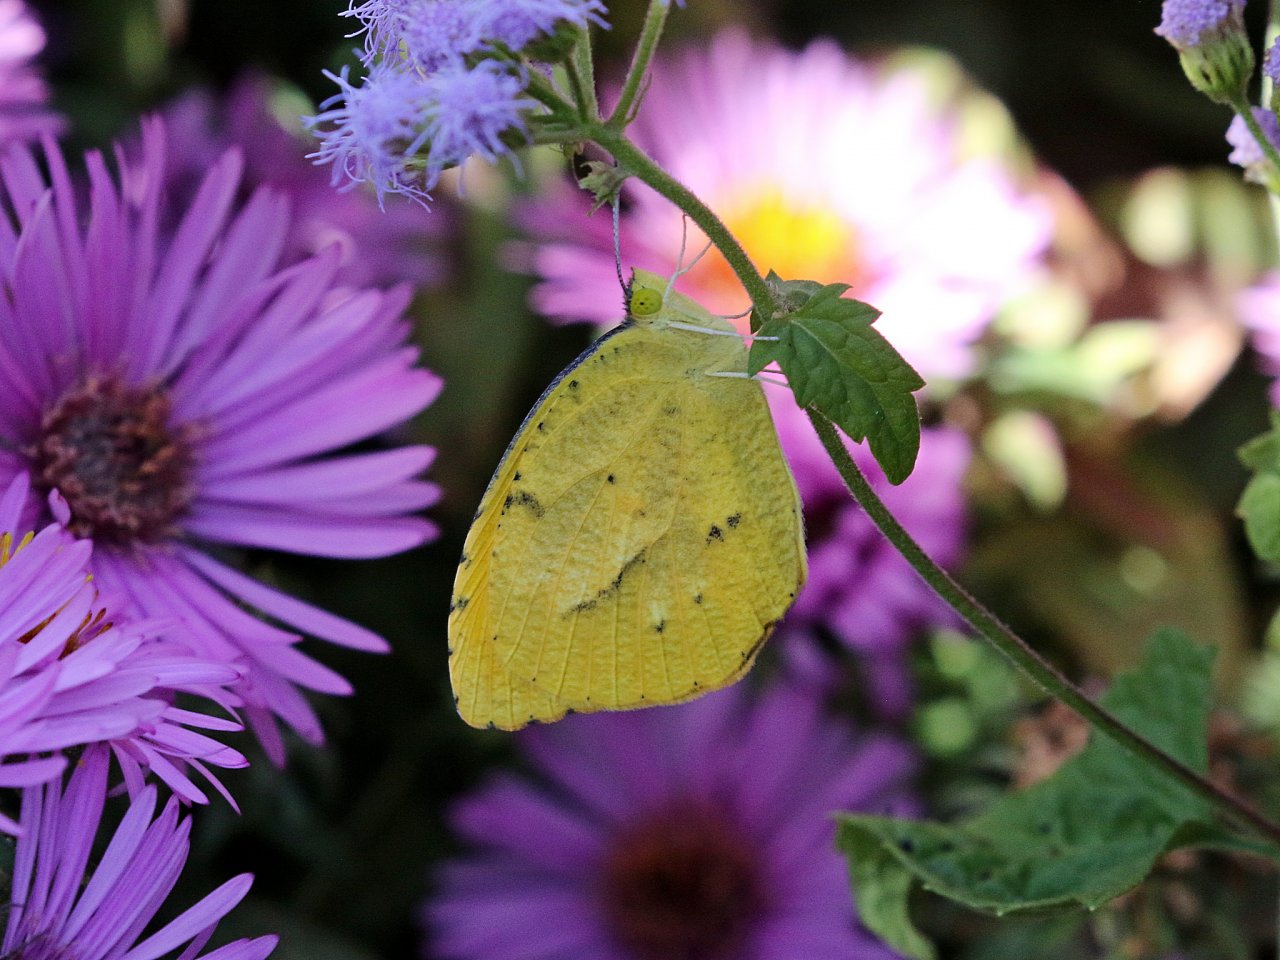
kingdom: Animalia
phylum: Arthropoda
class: Insecta
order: Lepidoptera
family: Pieridae
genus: Abaeis
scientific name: Abaeis nicippe
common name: Sleepy Orange
